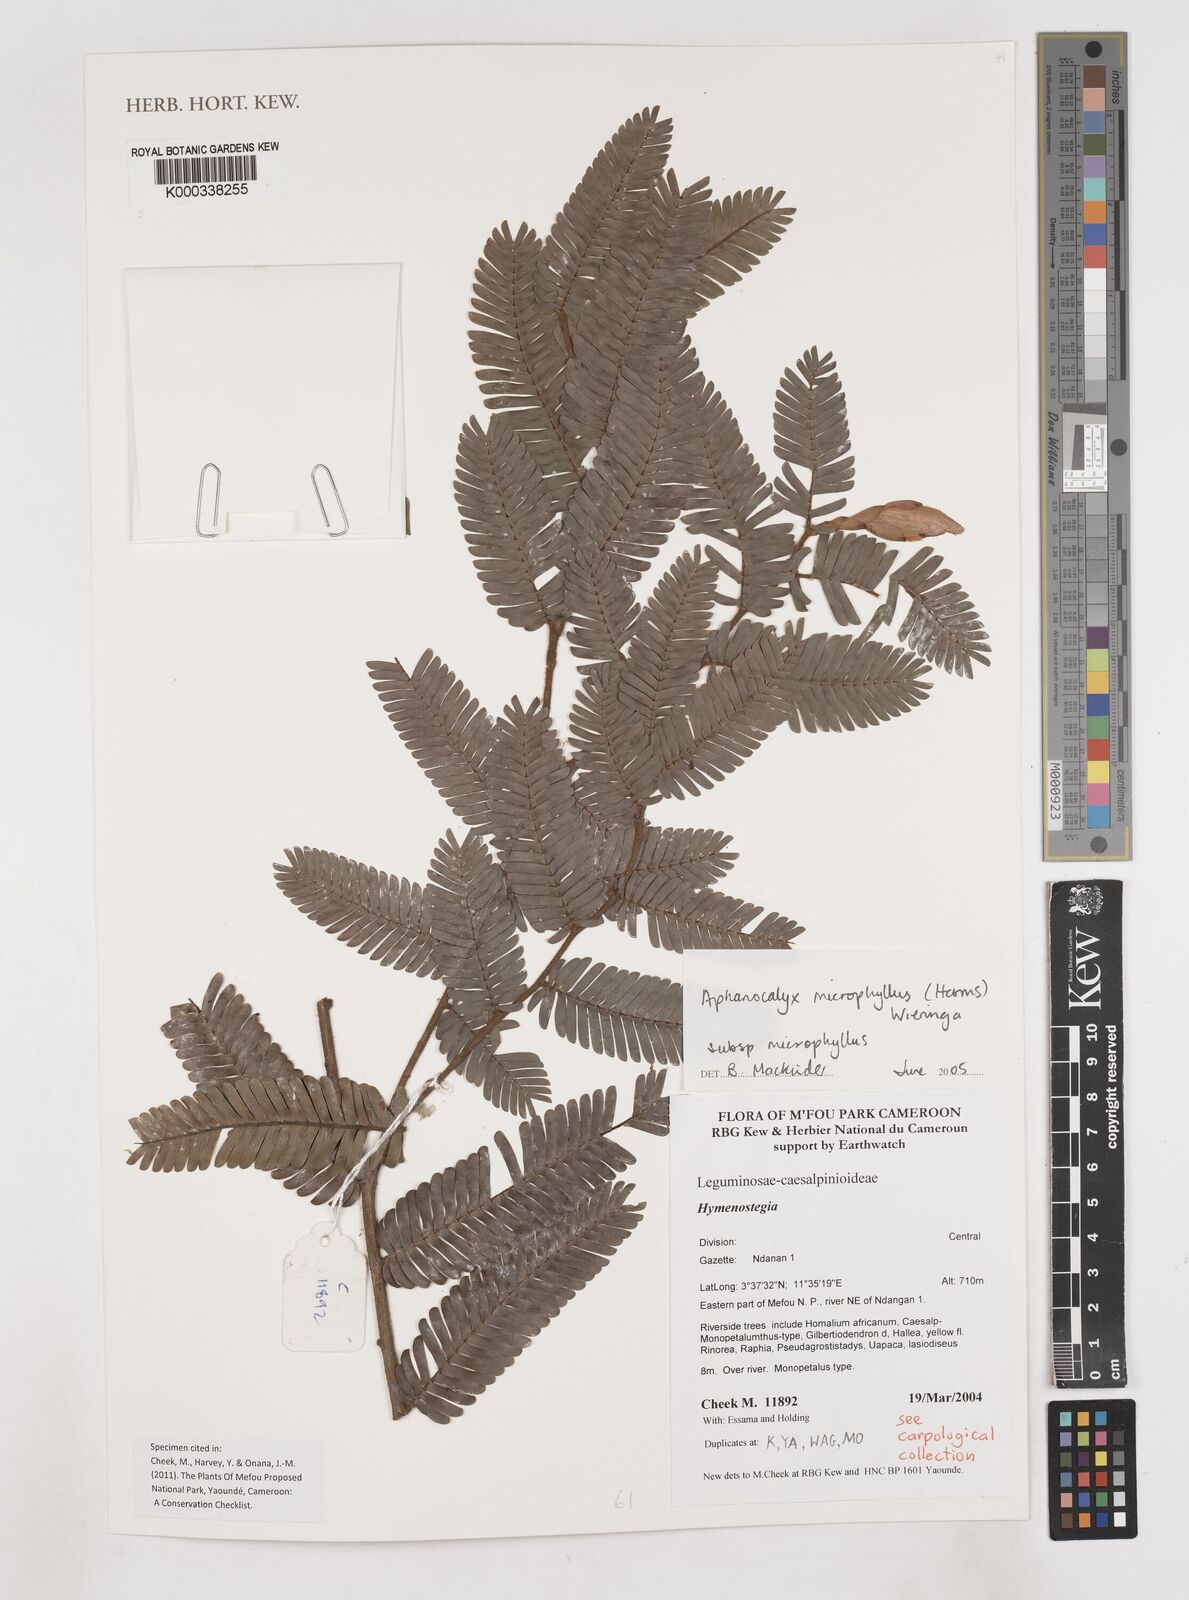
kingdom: Plantae
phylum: Tracheophyta
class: Magnoliopsida
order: Fabales
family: Fabaceae
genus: Aphanocalyx
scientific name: Aphanocalyx microphyllus
